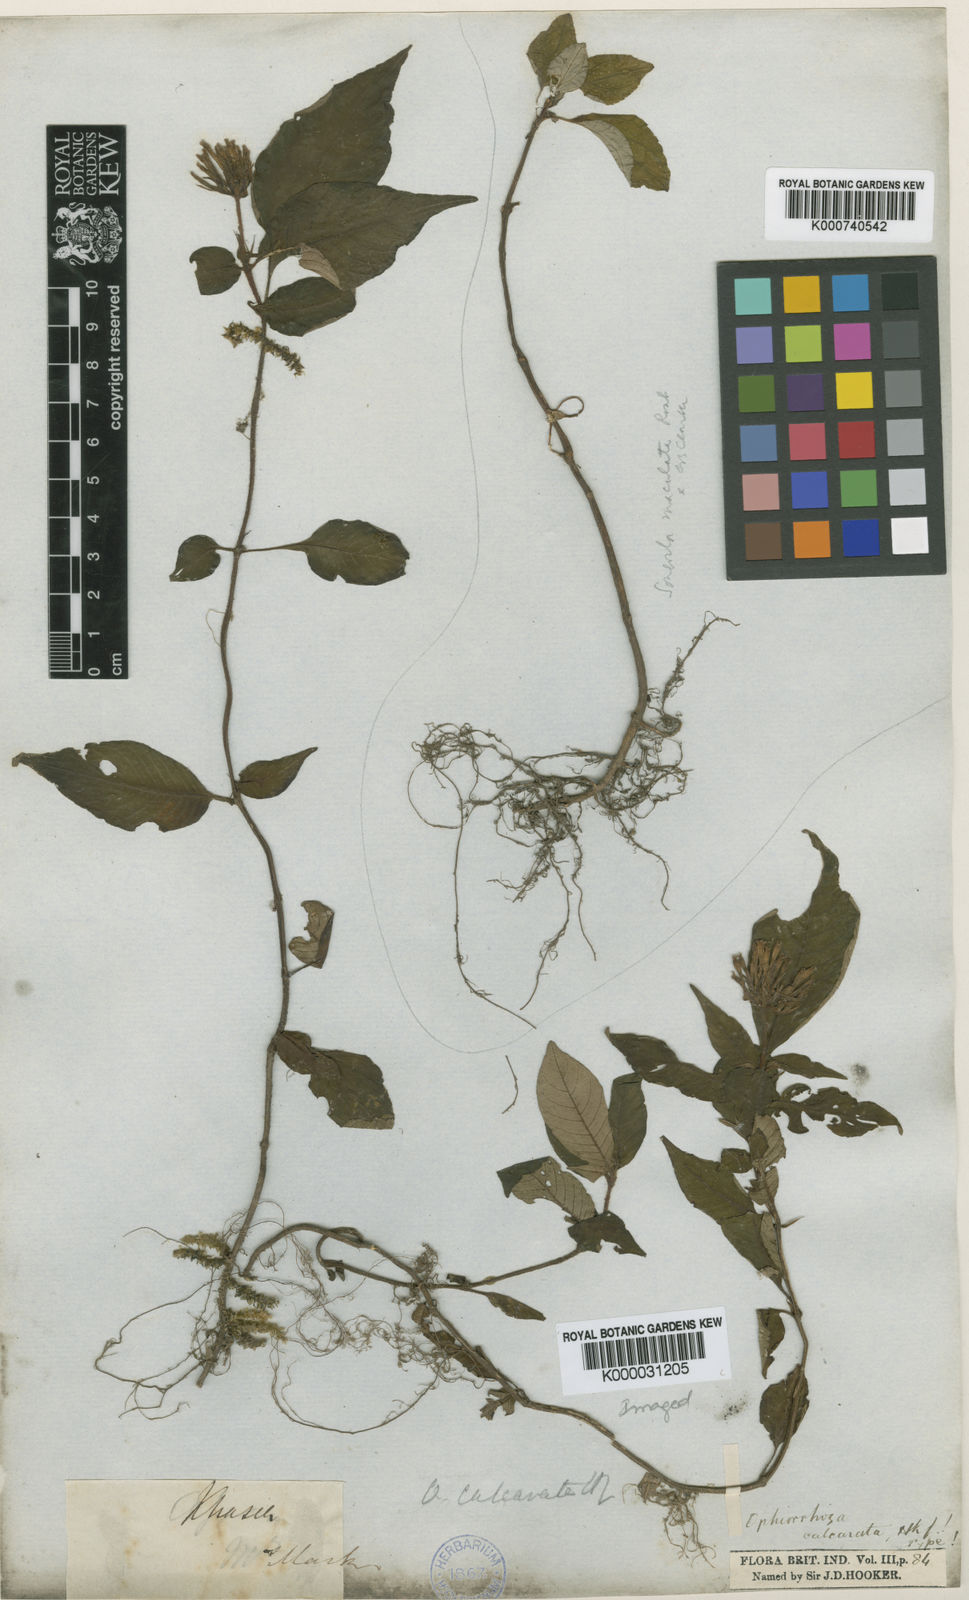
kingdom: Plantae
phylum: Tracheophyta
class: Magnoliopsida
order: Gentianales
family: Rubiaceae
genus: Ophiorrhiza
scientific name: Ophiorrhiza repens
